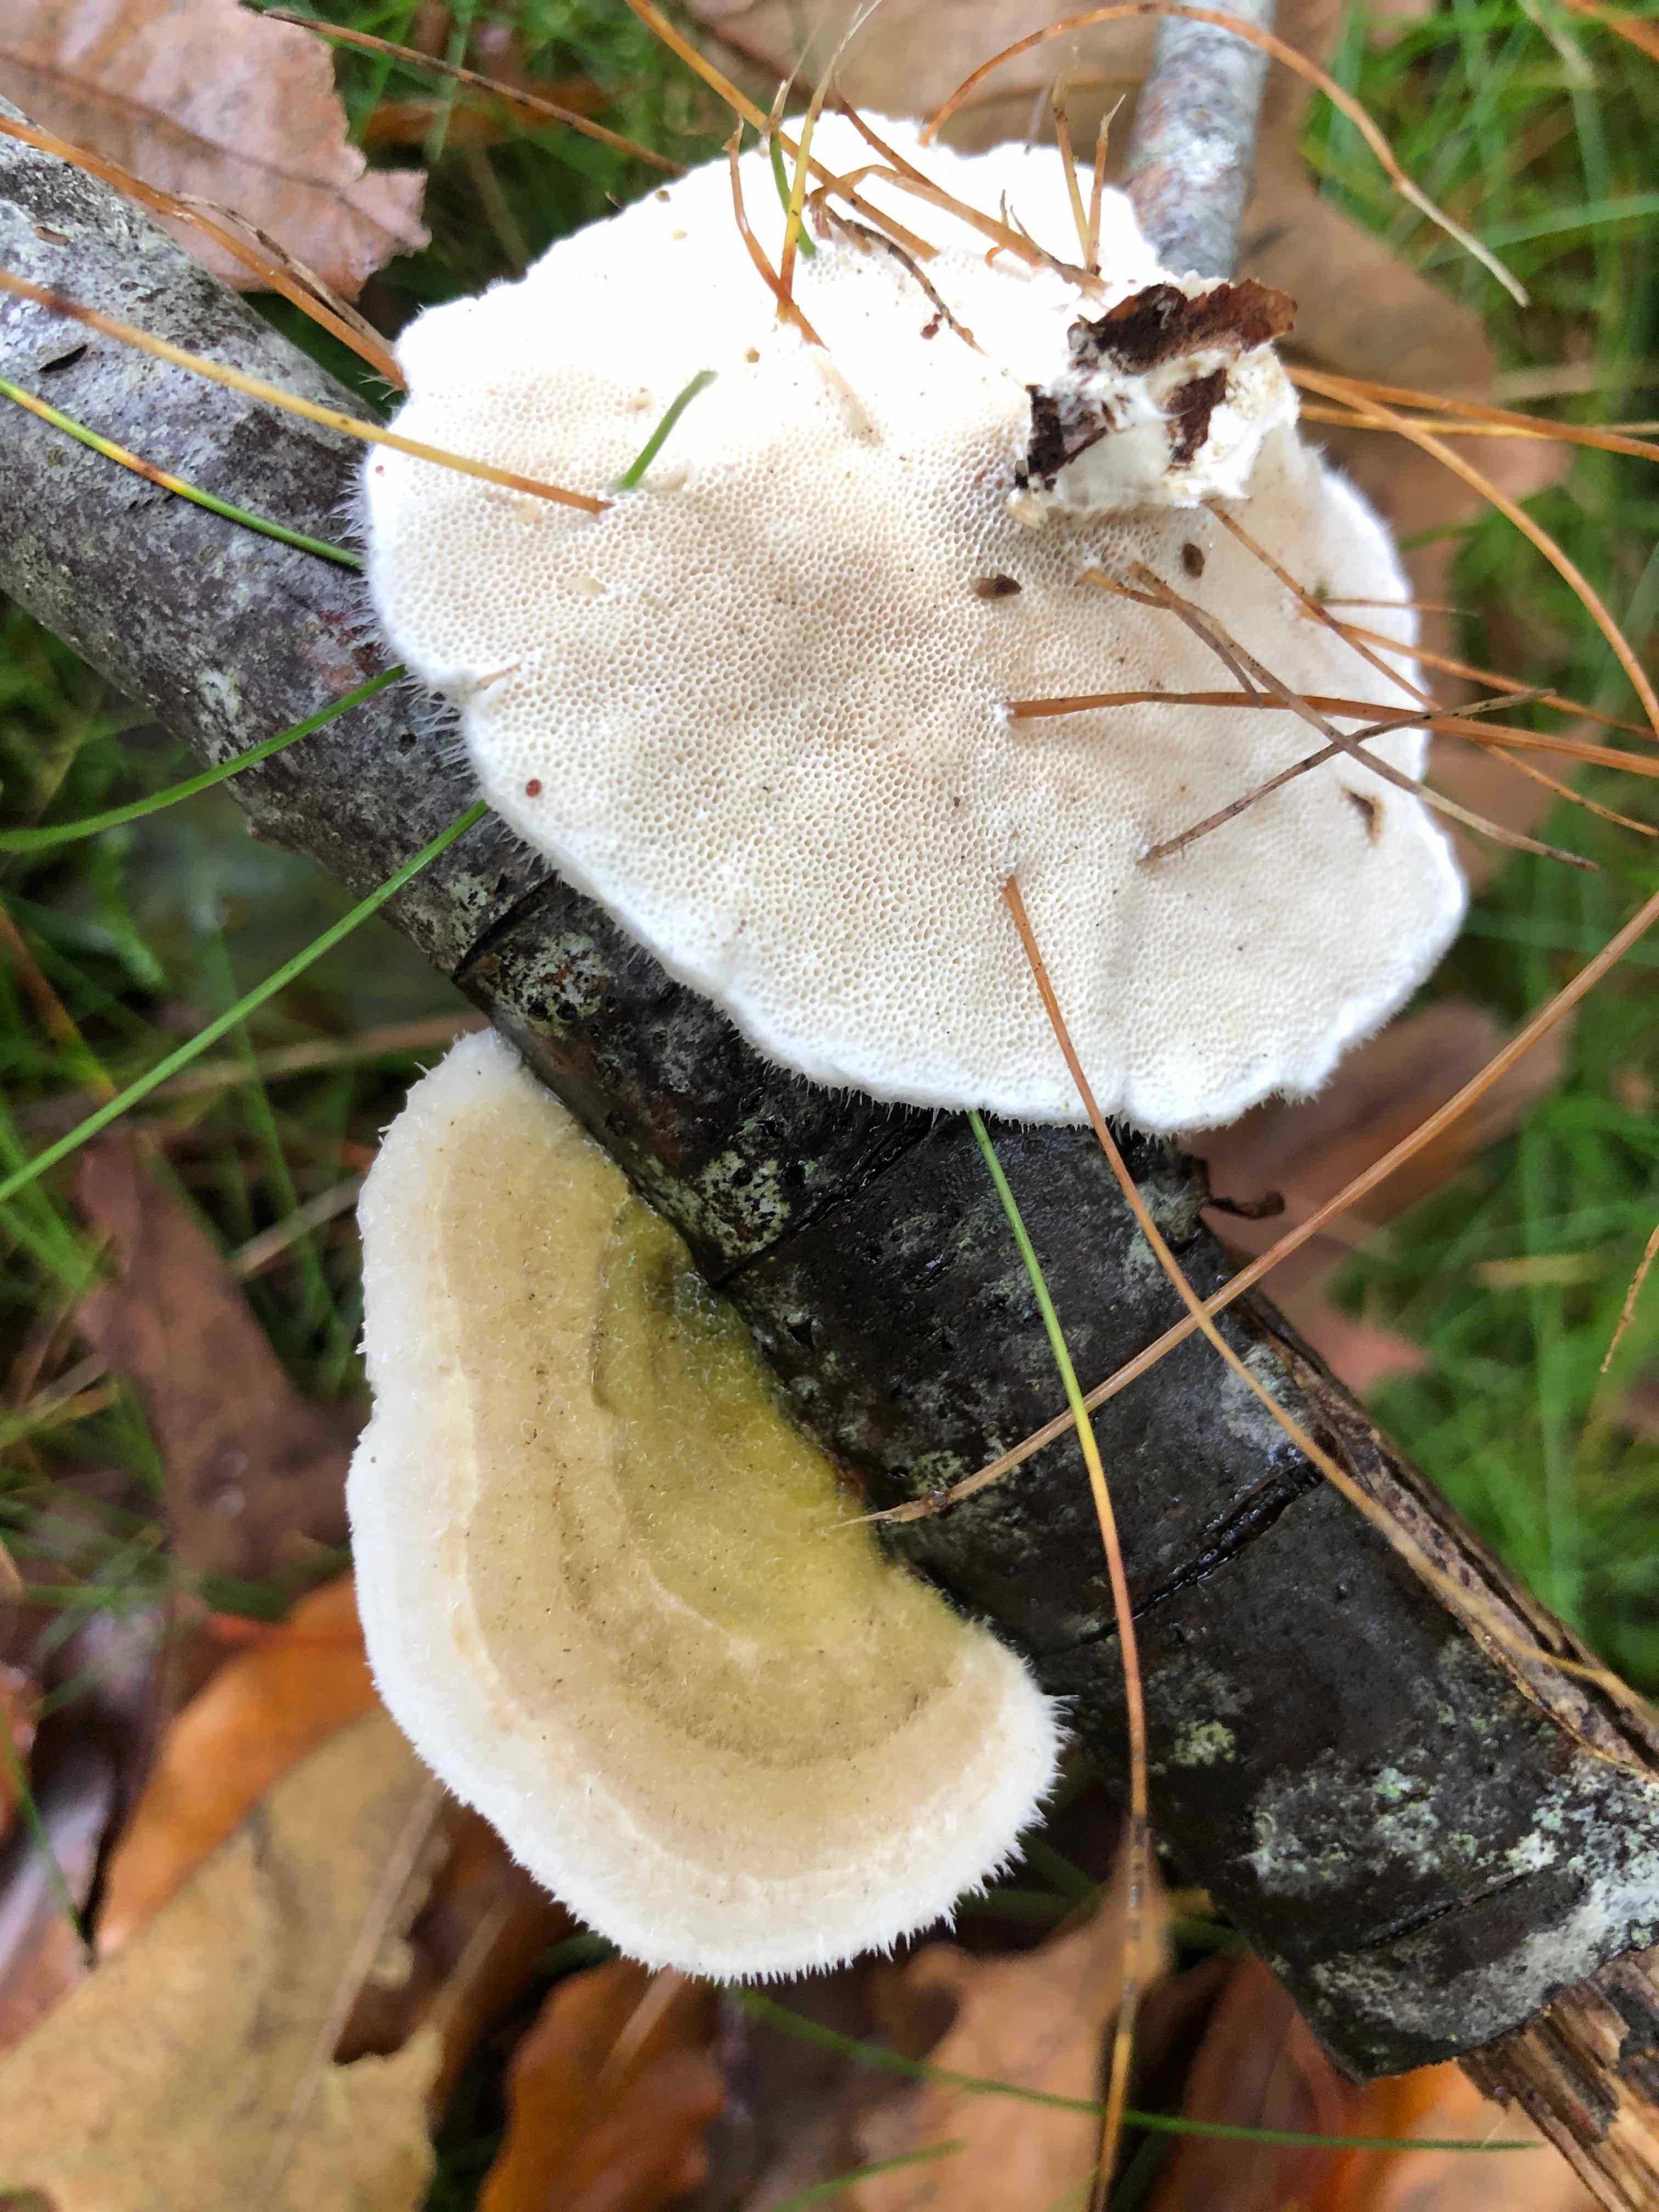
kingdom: Fungi
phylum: Basidiomycota
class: Agaricomycetes
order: Polyporales
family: Polyporaceae
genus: Trametes
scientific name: Trametes hirsuta
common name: håret læderporesvamp
